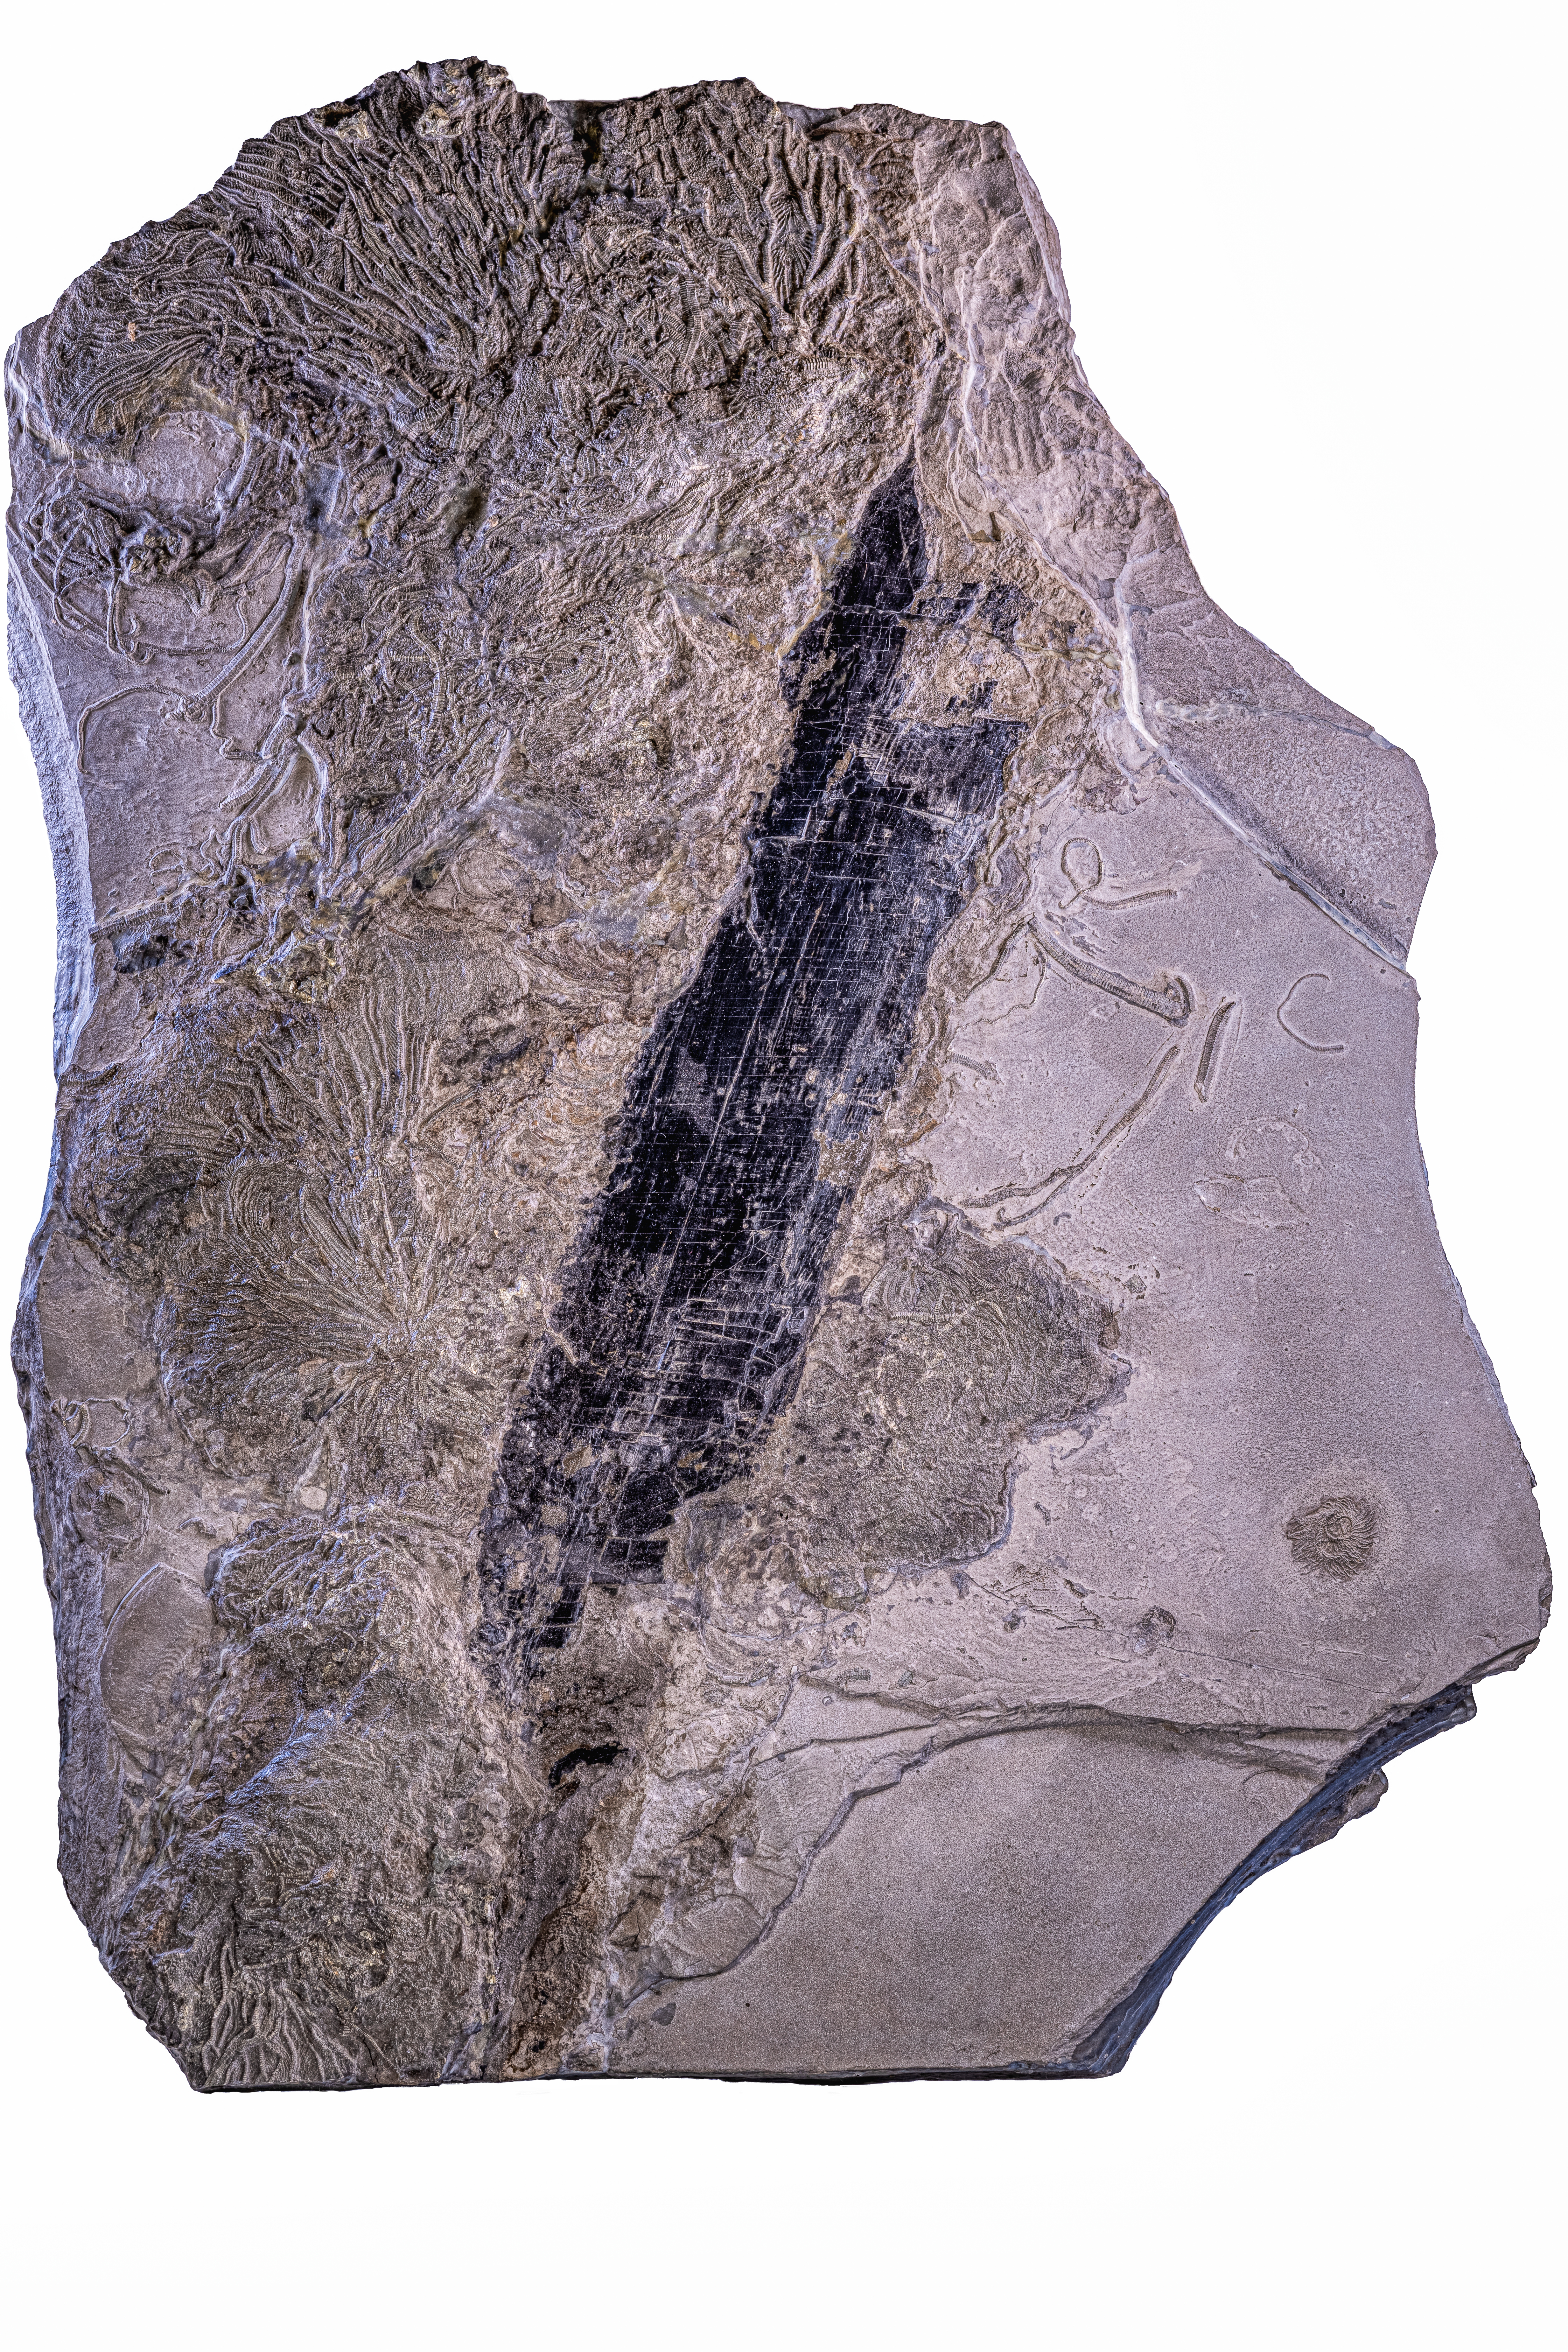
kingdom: Animalia
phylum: Echinodermata
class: Crinoidea
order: Isocrinida
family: Pentacrinitidae
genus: Pentacrinites
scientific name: Pentacrinites
